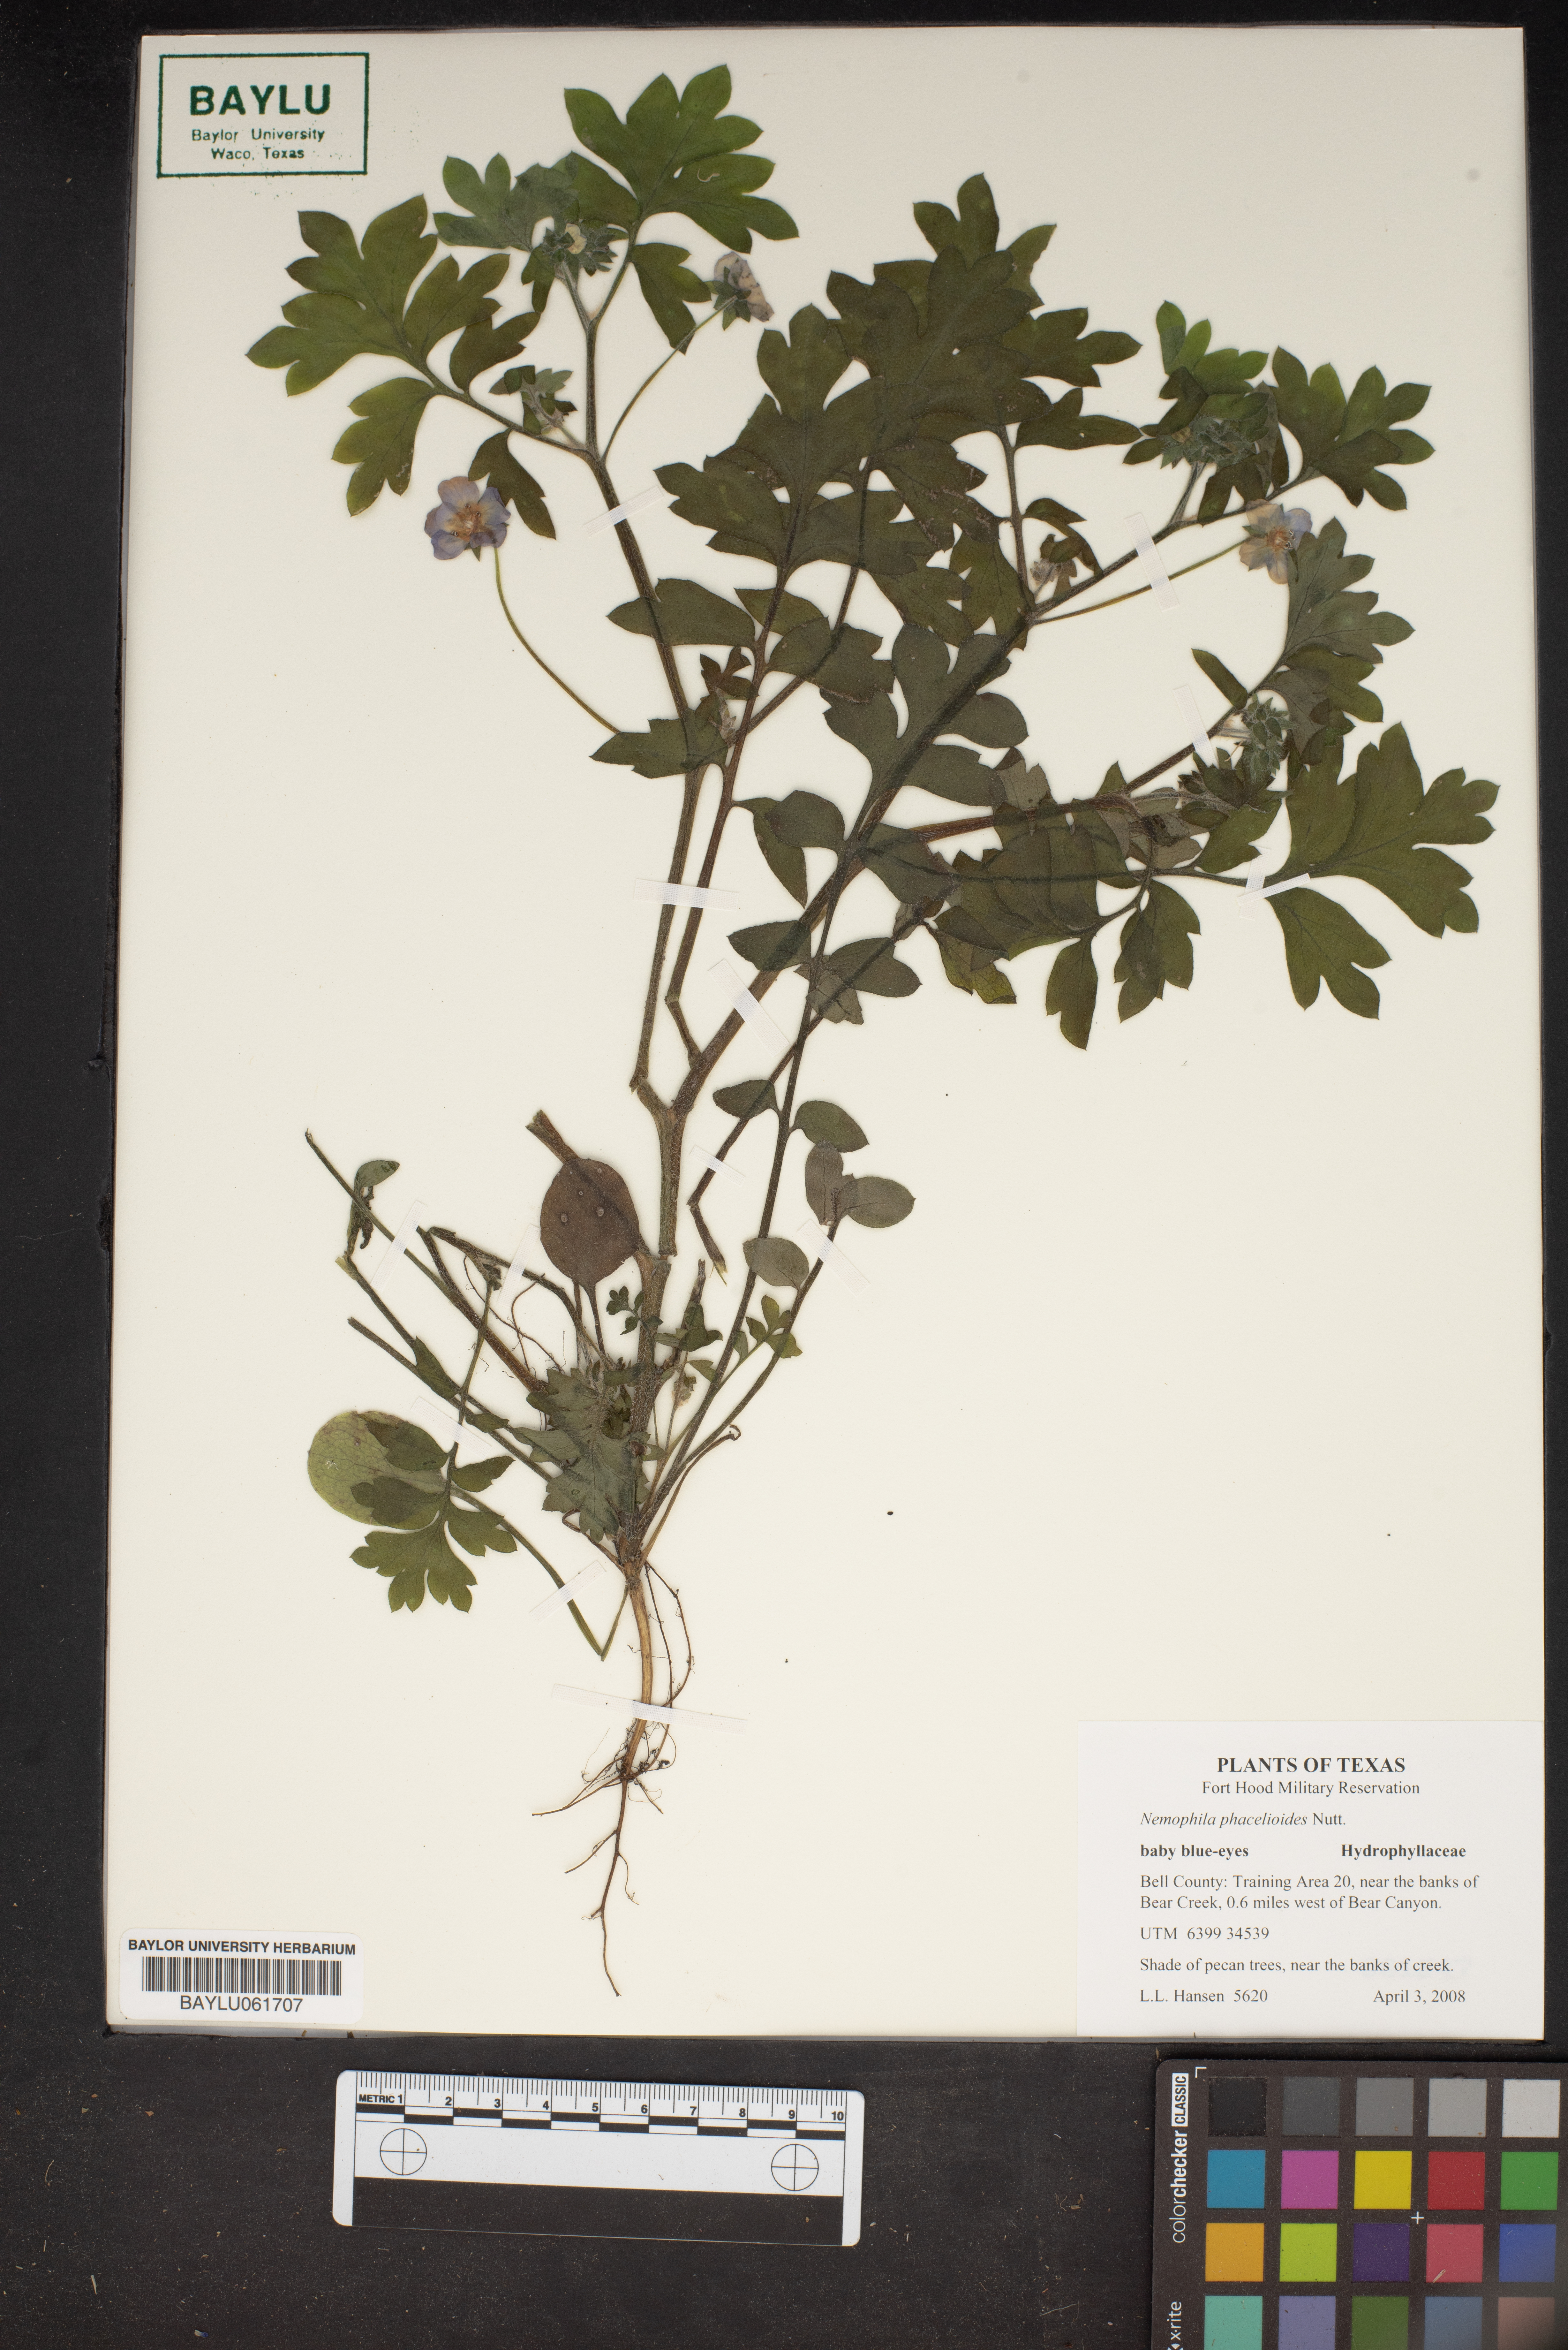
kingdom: Plantae
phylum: Tracheophyta
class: Magnoliopsida
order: Boraginales
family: Hydrophyllaceae
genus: Nemophila
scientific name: Nemophila phacelioides
